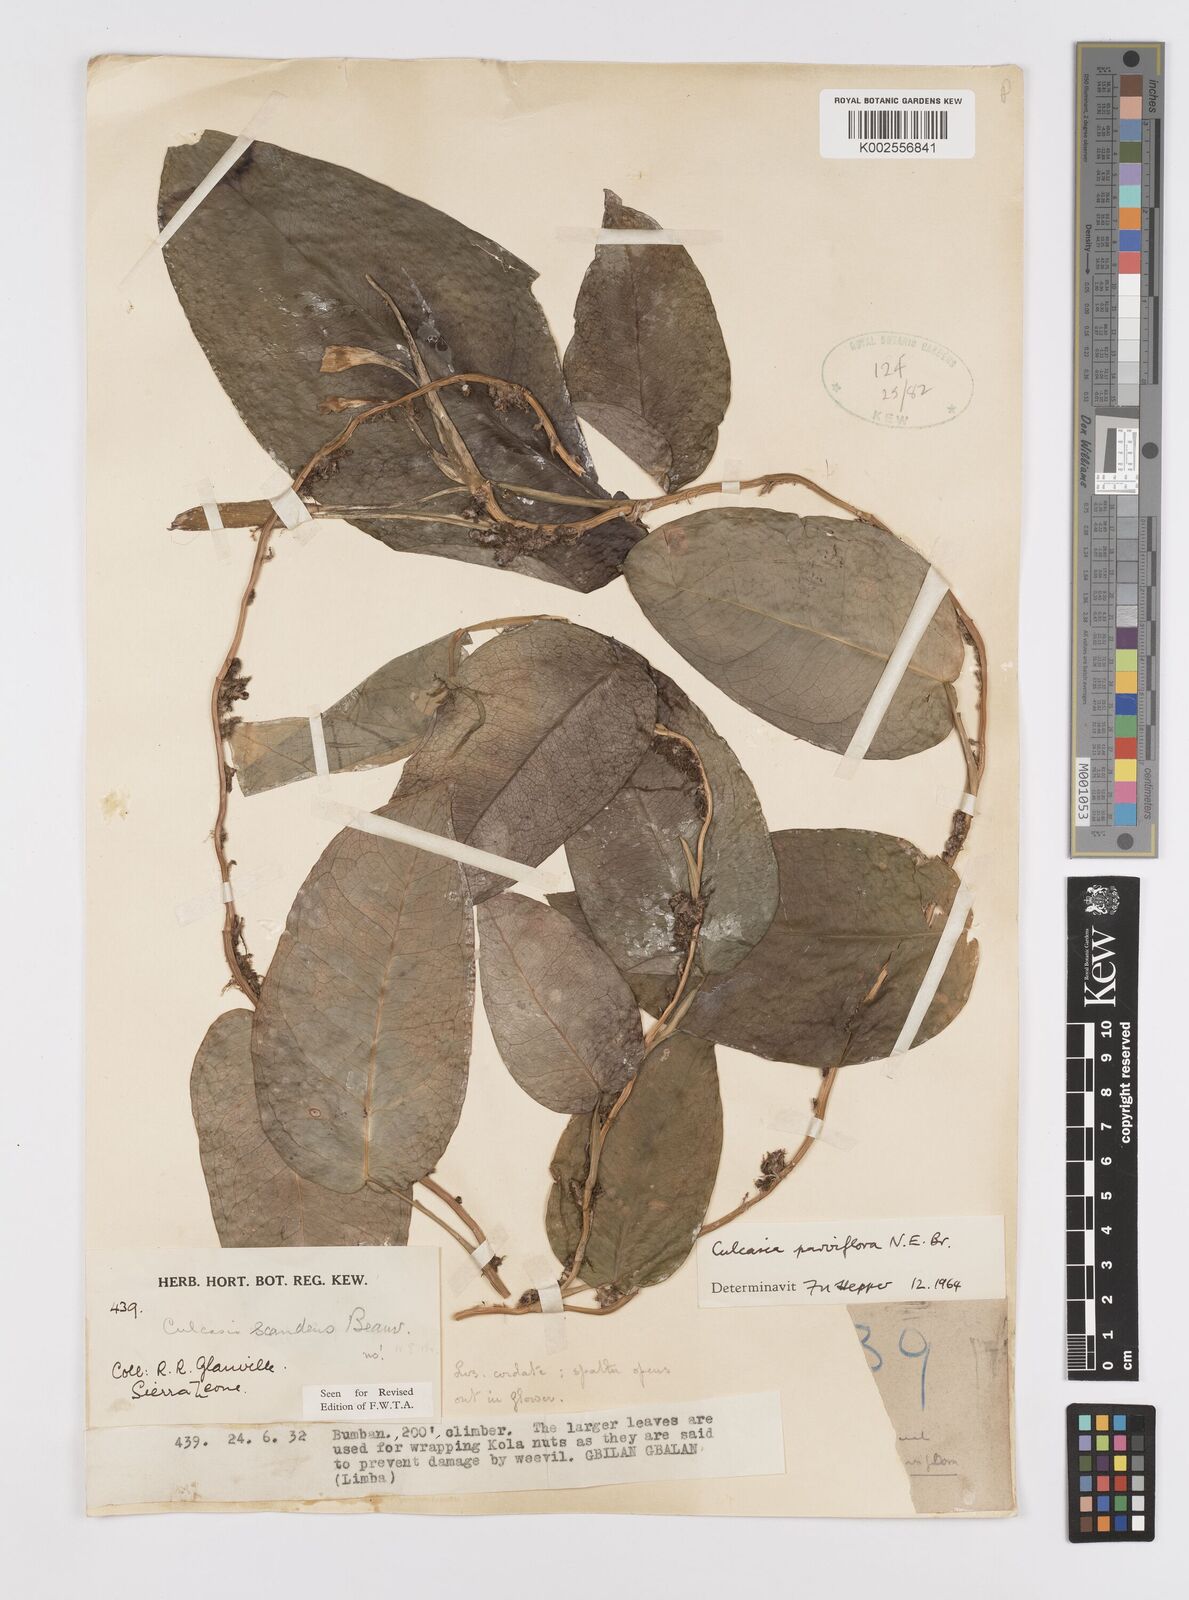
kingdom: Plantae
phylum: Tracheophyta
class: Liliopsida
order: Alismatales
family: Araceae
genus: Culcasia
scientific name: Culcasia parviflora
